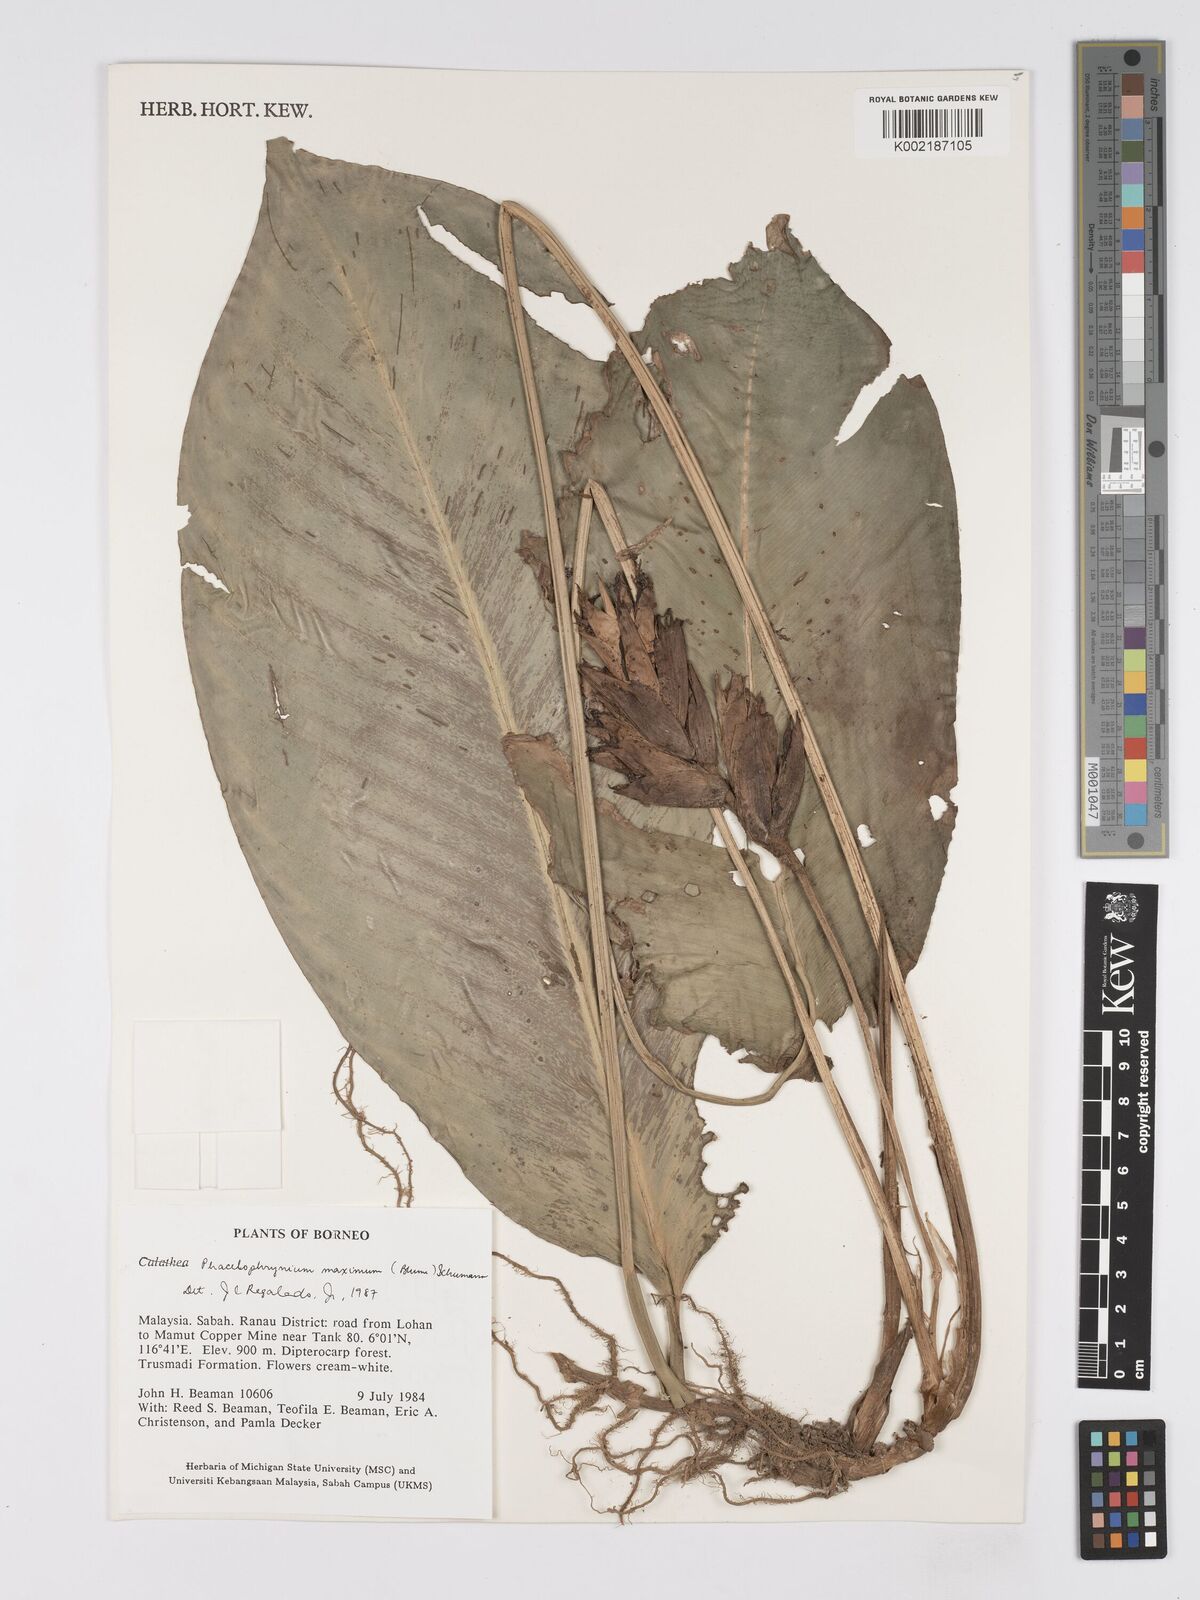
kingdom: Plantae
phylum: Tracheophyta
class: Liliopsida
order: Zingiberales
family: Marantaceae
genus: Phrynium
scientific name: Phrynium maximum
